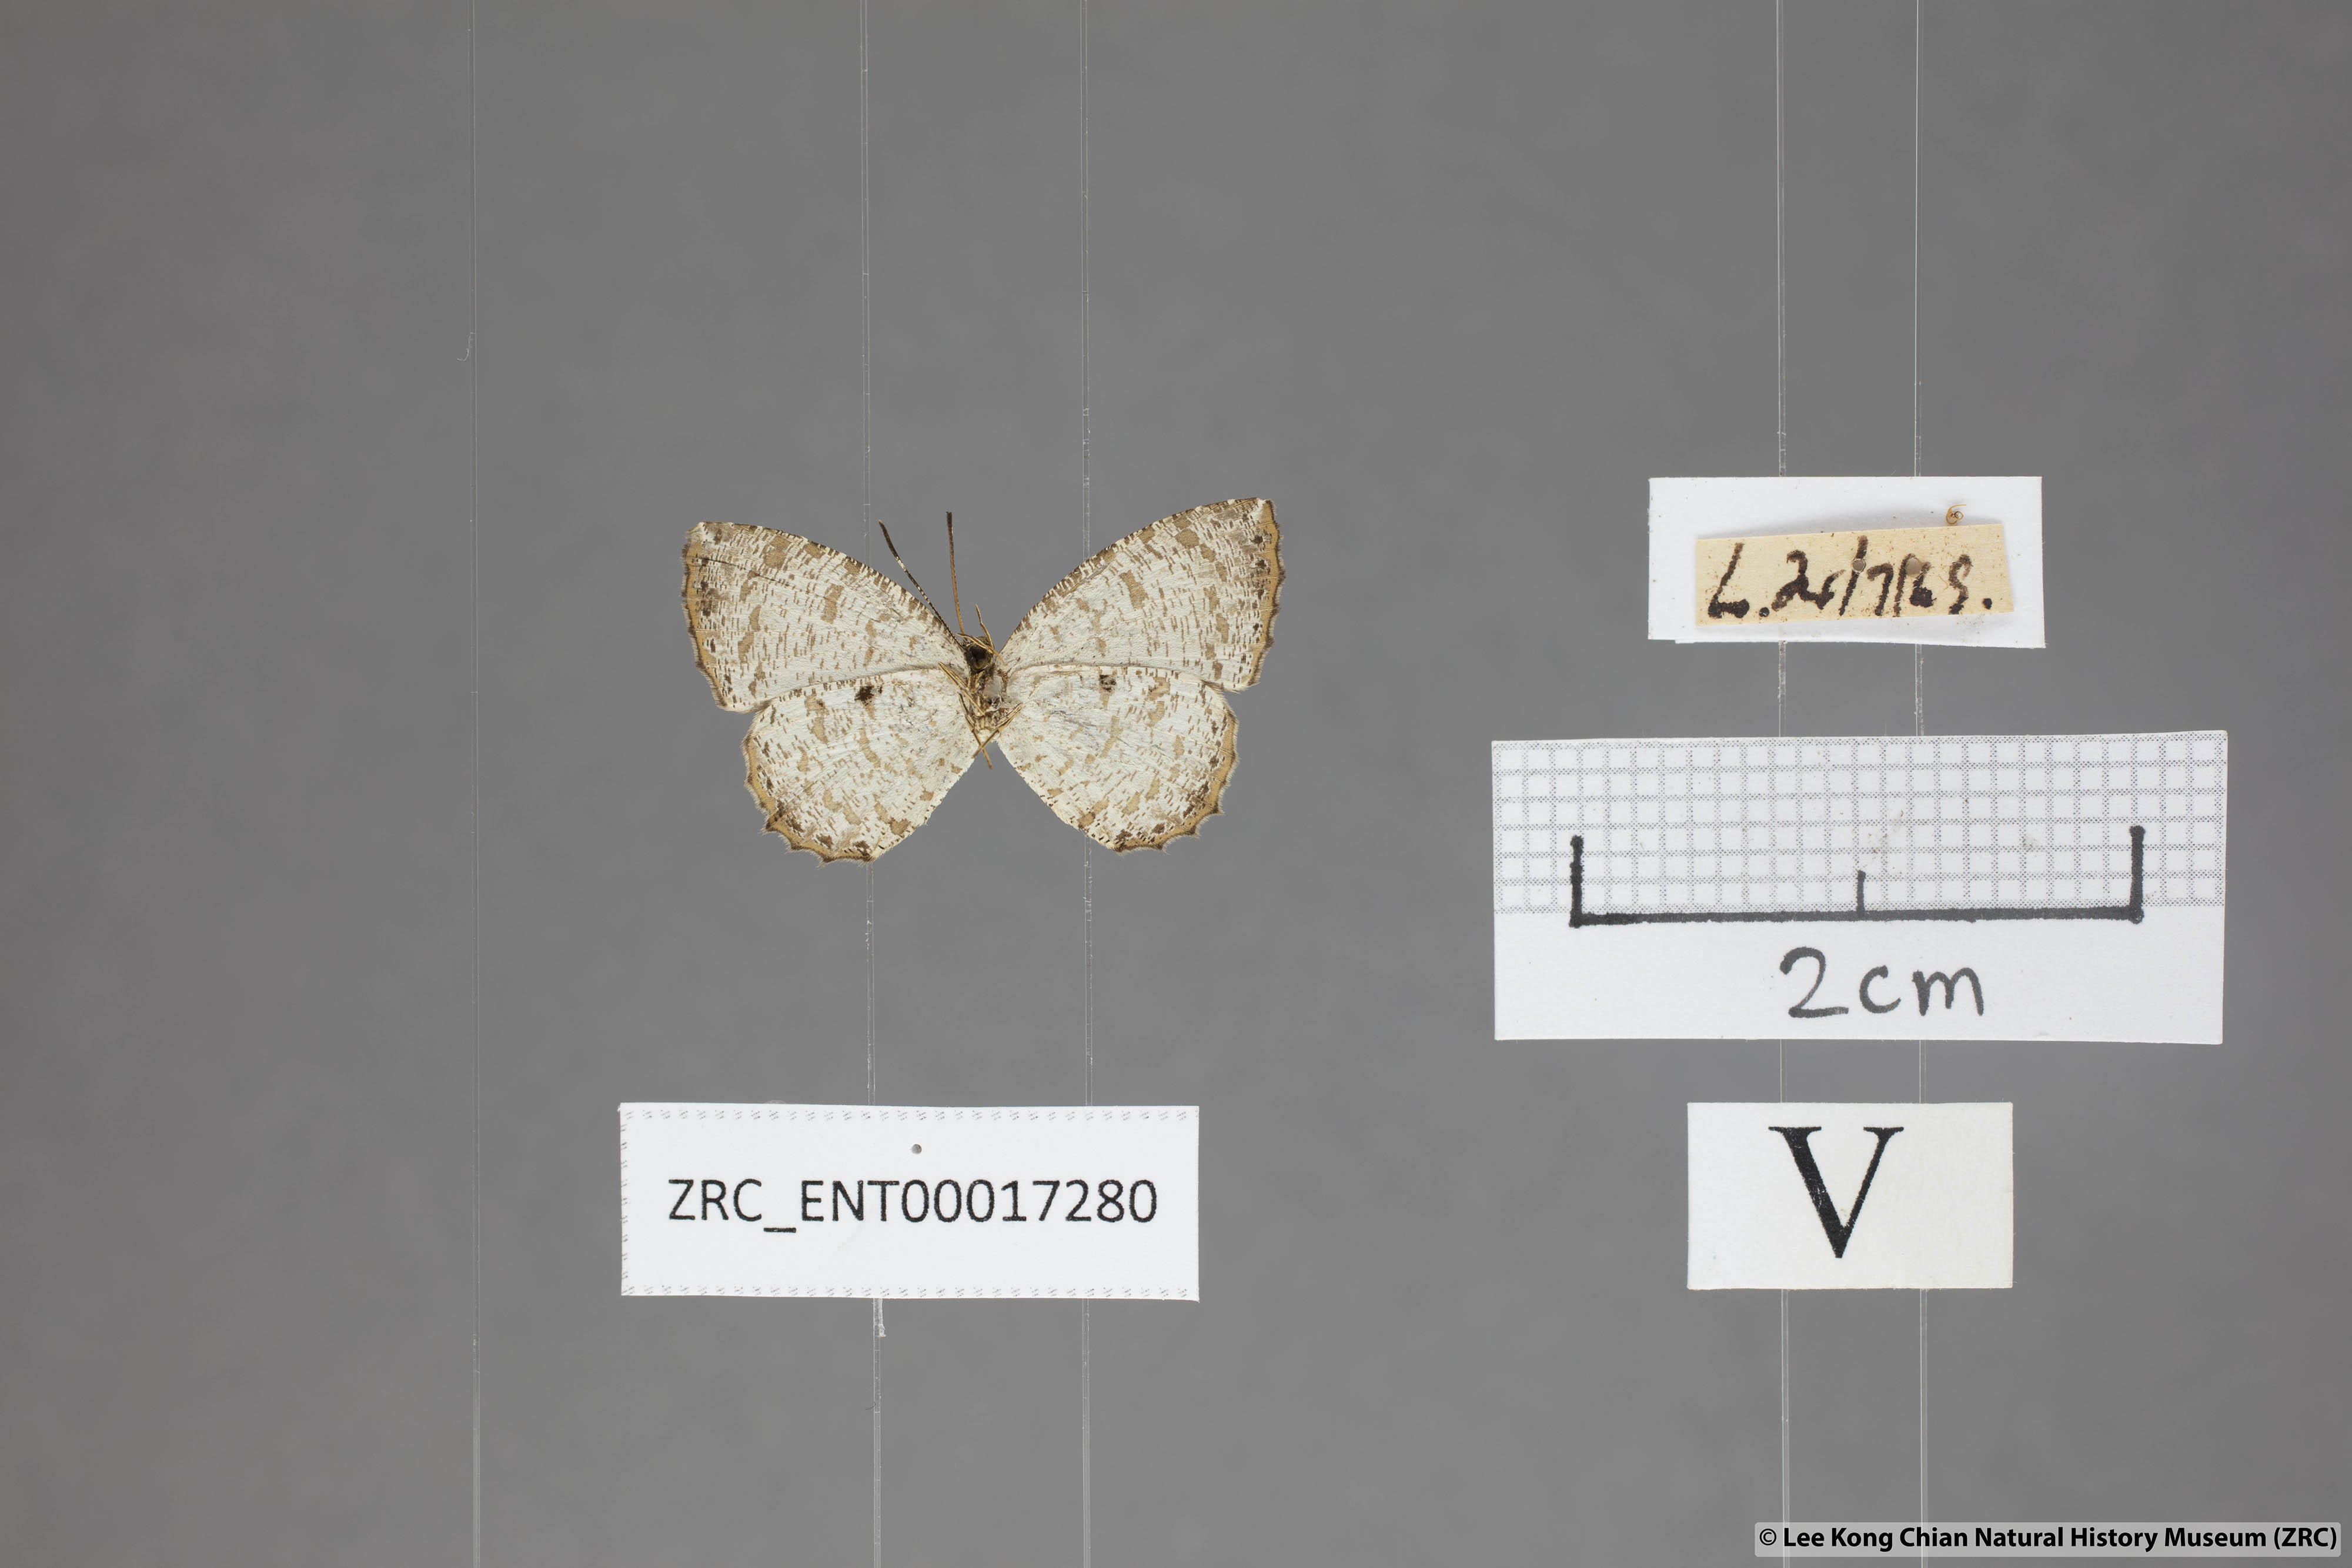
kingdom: Animalia
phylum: Arthropoda
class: Insecta
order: Lepidoptera
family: Lycaenidae
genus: Allotinus
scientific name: Allotinus substrigosa
